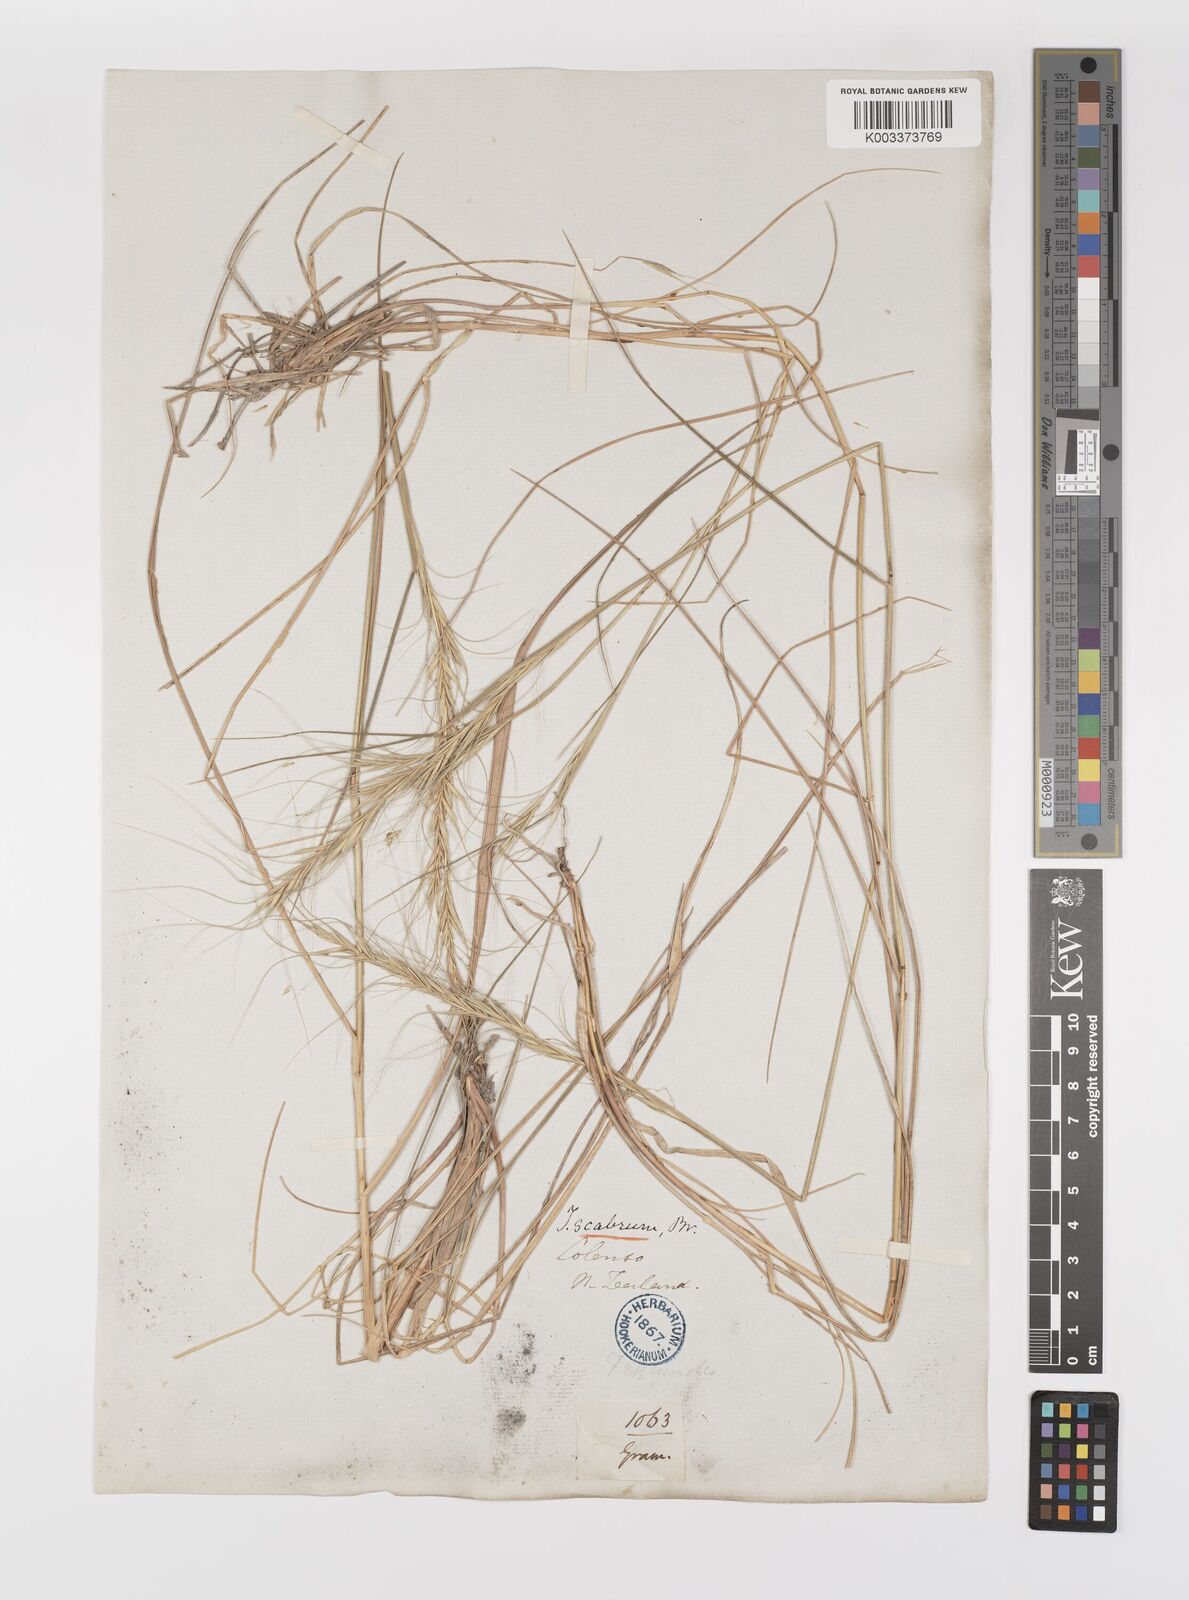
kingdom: Plantae
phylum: Tracheophyta
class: Liliopsida
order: Poales
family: Poaceae
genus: Anthosachne
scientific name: Anthosachne scabra
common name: Common wheatgrass
